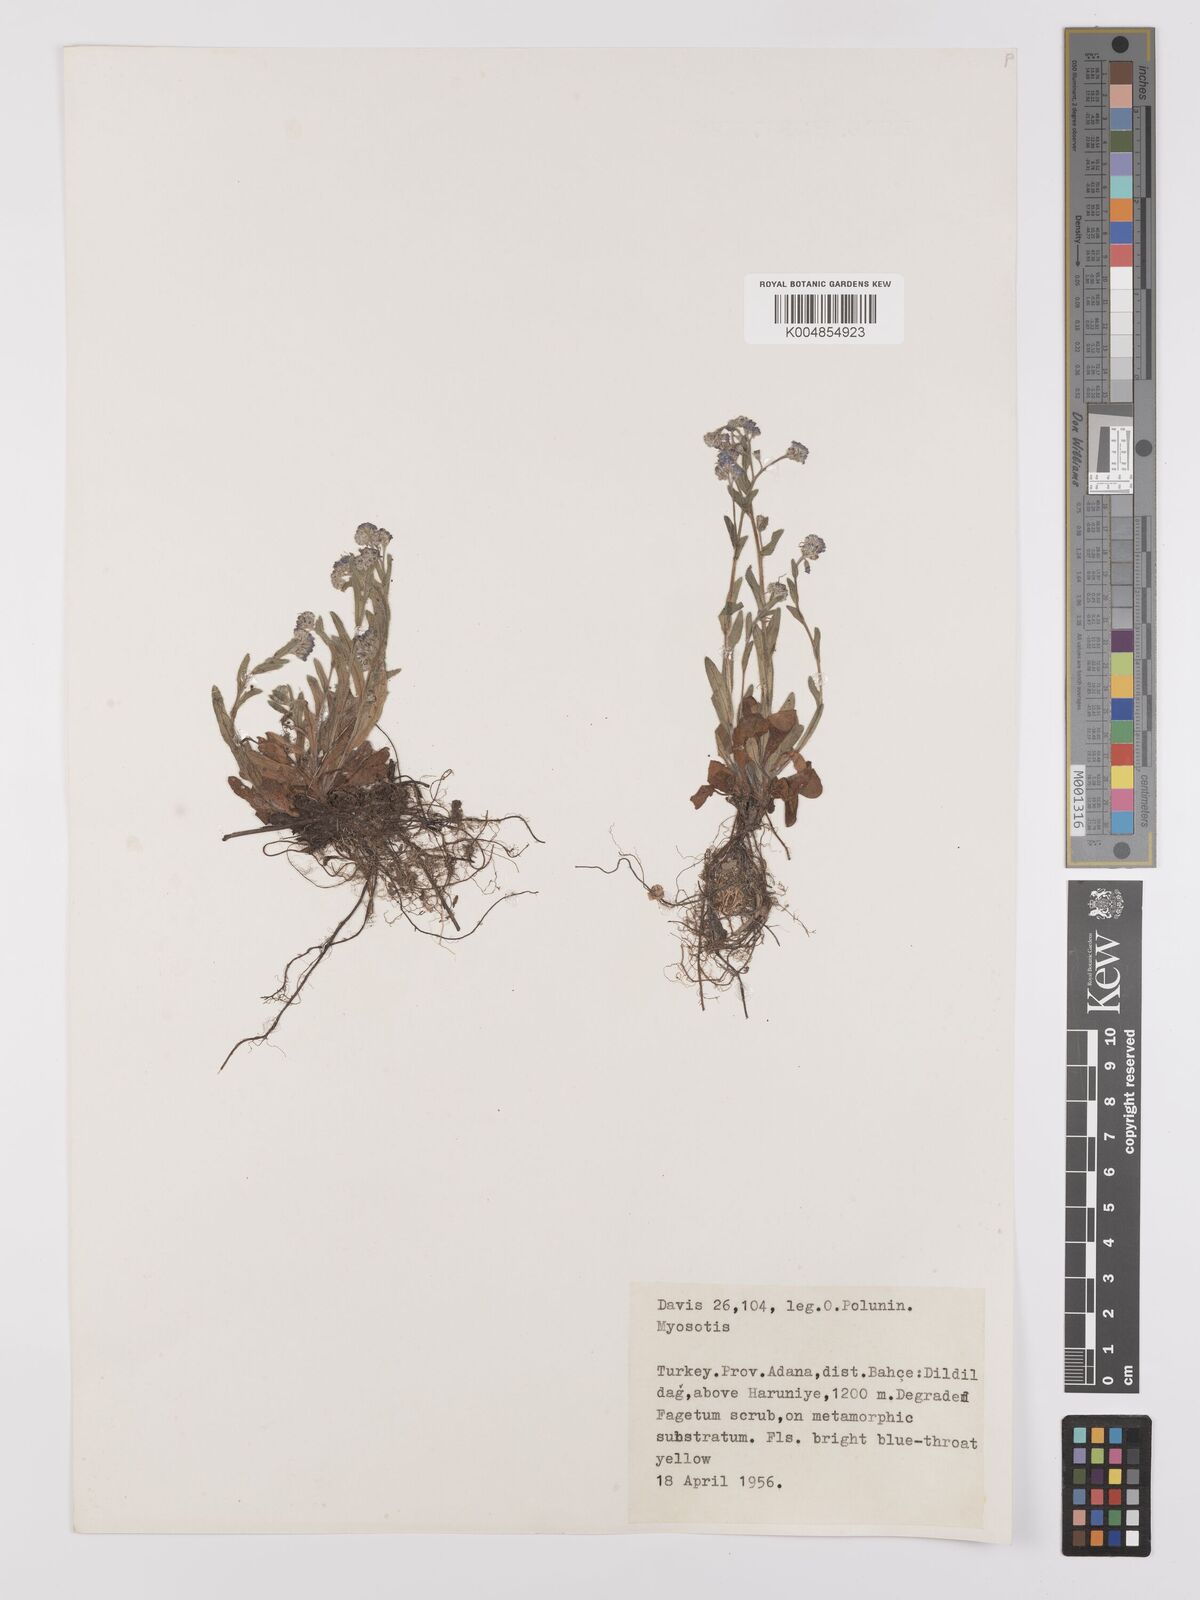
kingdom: Plantae
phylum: Tracheophyta
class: Magnoliopsida
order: Boraginales
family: Boraginaceae
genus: Myosotis
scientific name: Myosotis
